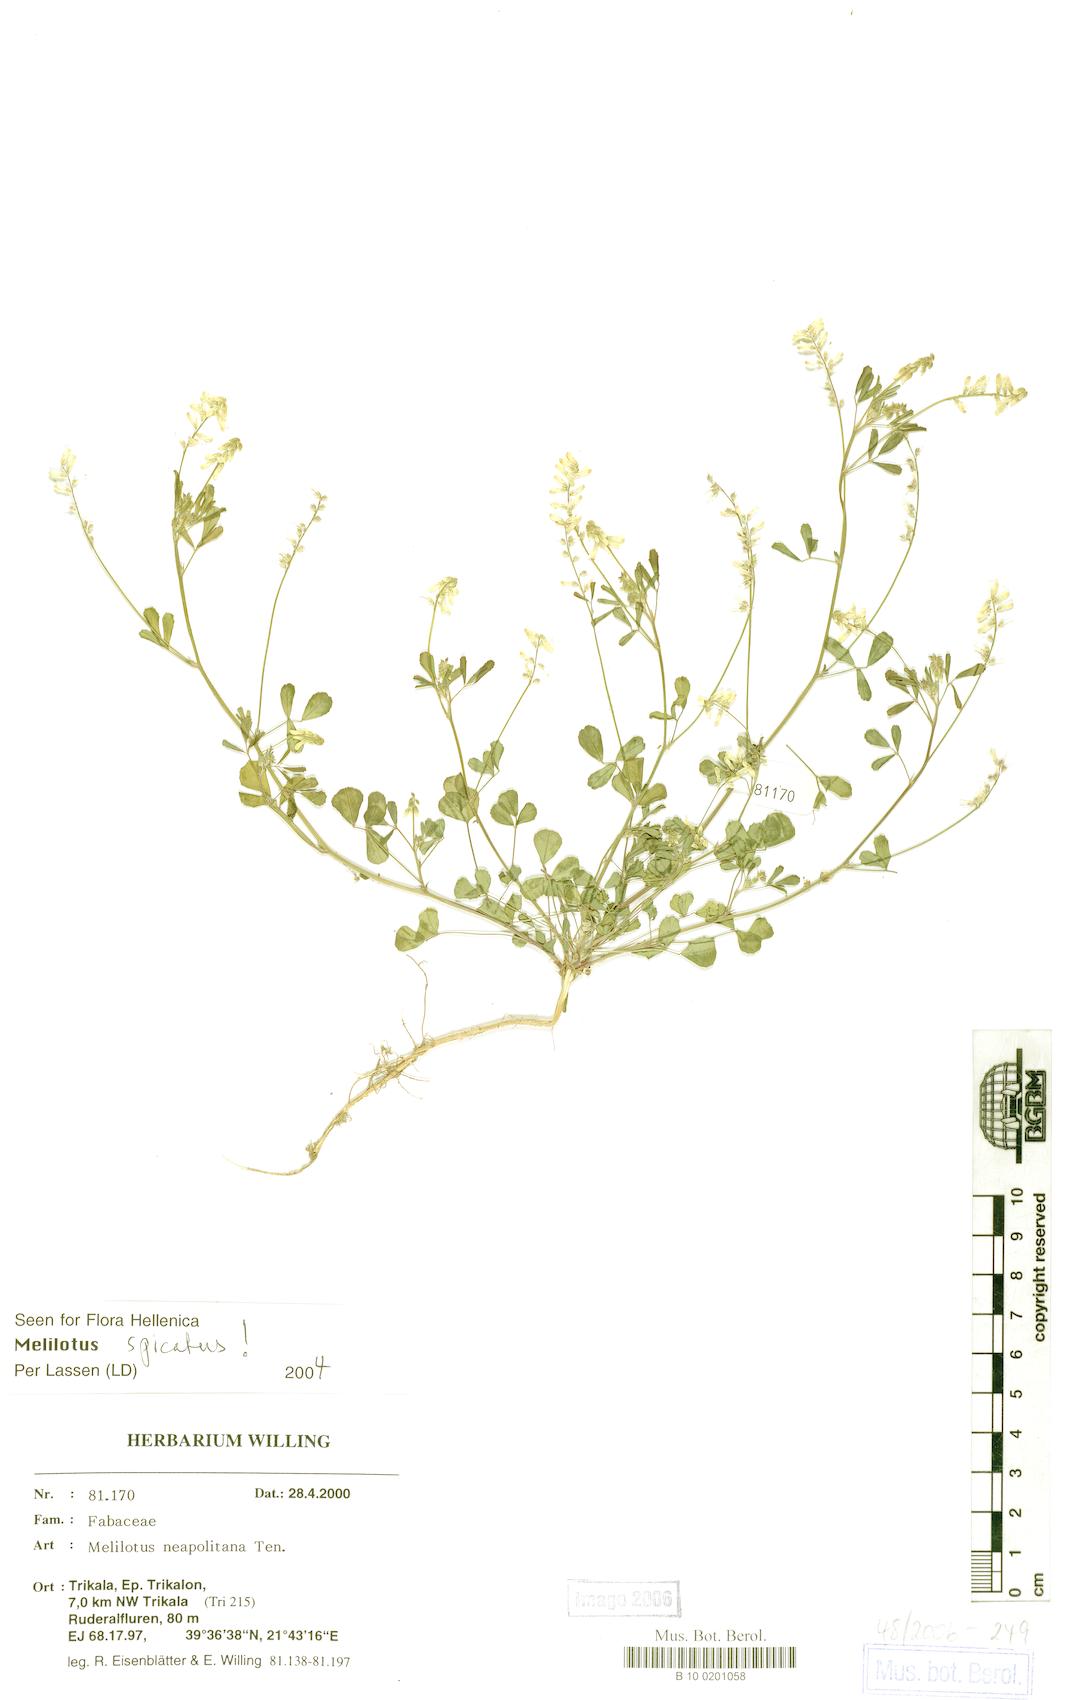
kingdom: Plantae
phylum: Tracheophyta
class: Magnoliopsida
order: Fabales
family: Fabaceae
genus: Melilotus
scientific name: Melilotus neapolitanus
